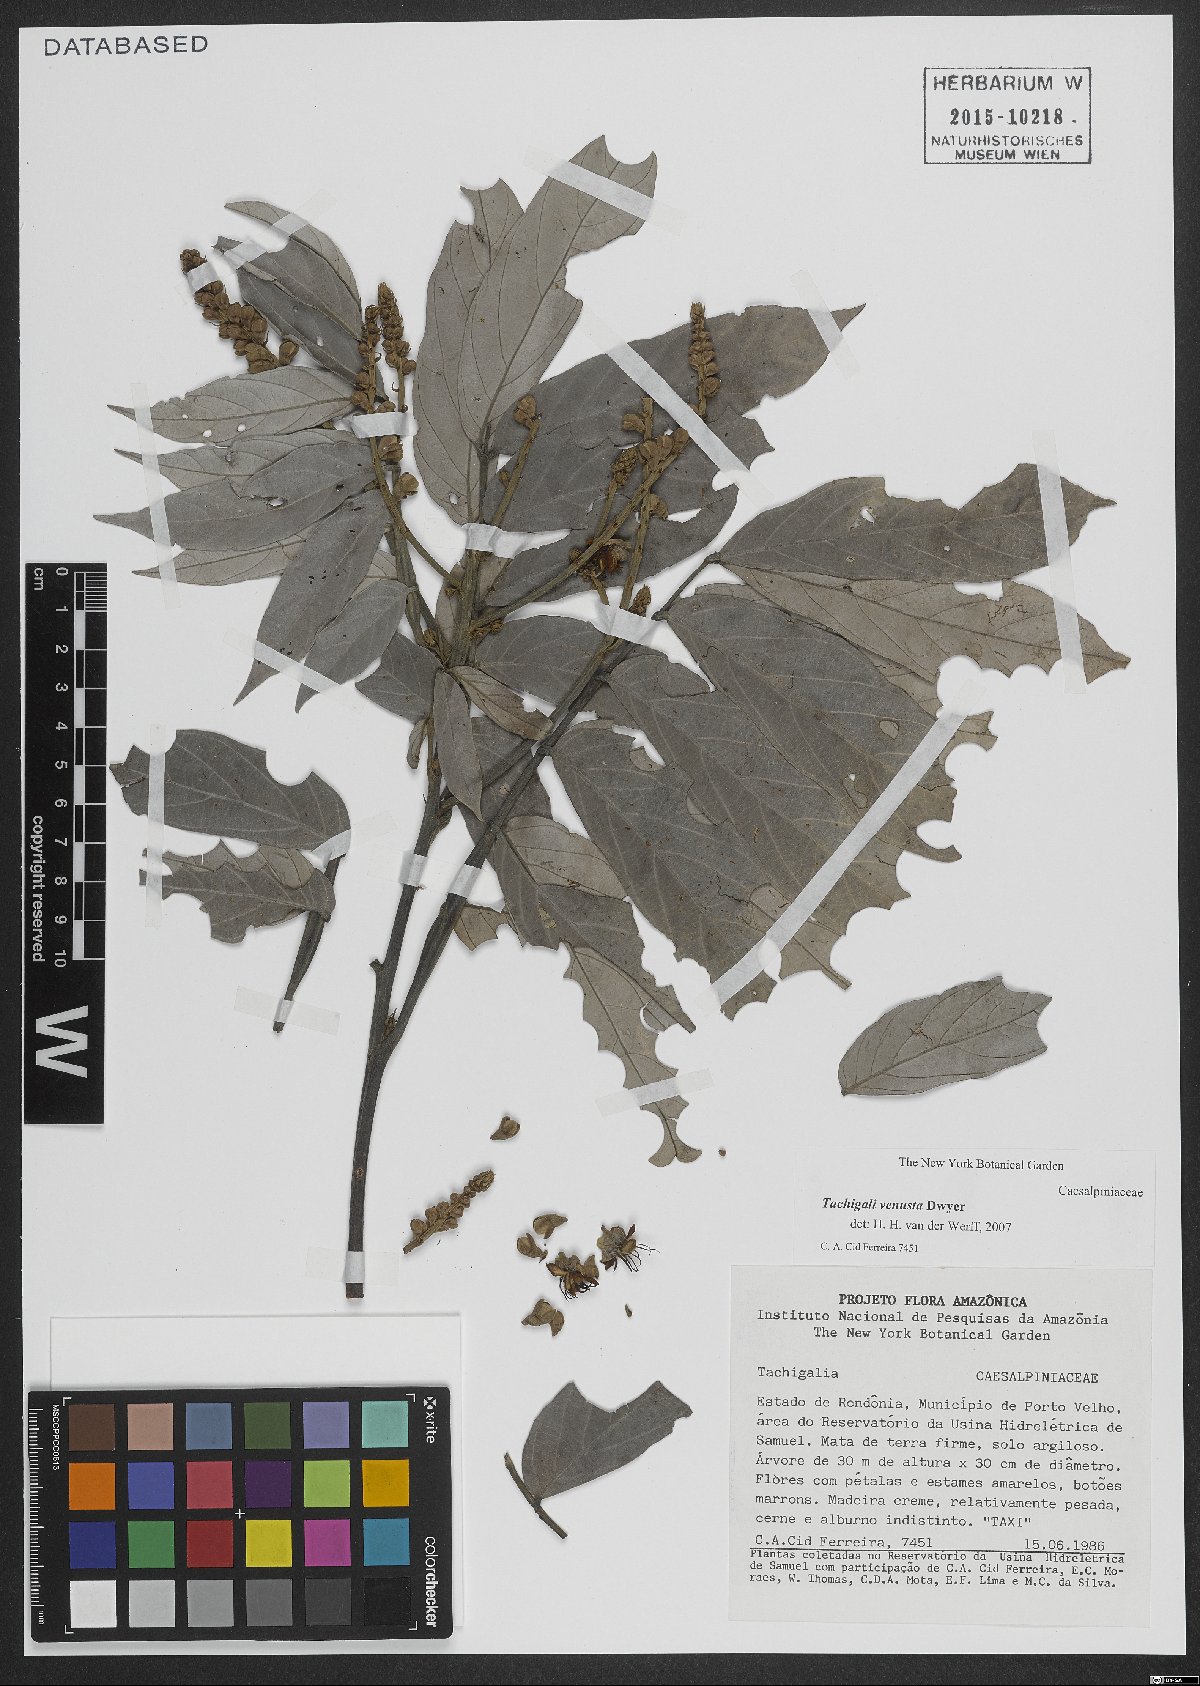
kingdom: Plantae
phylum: Tracheophyta
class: Magnoliopsida
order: Fabales
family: Fabaceae
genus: Tachigali
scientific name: Tachigali venusta
